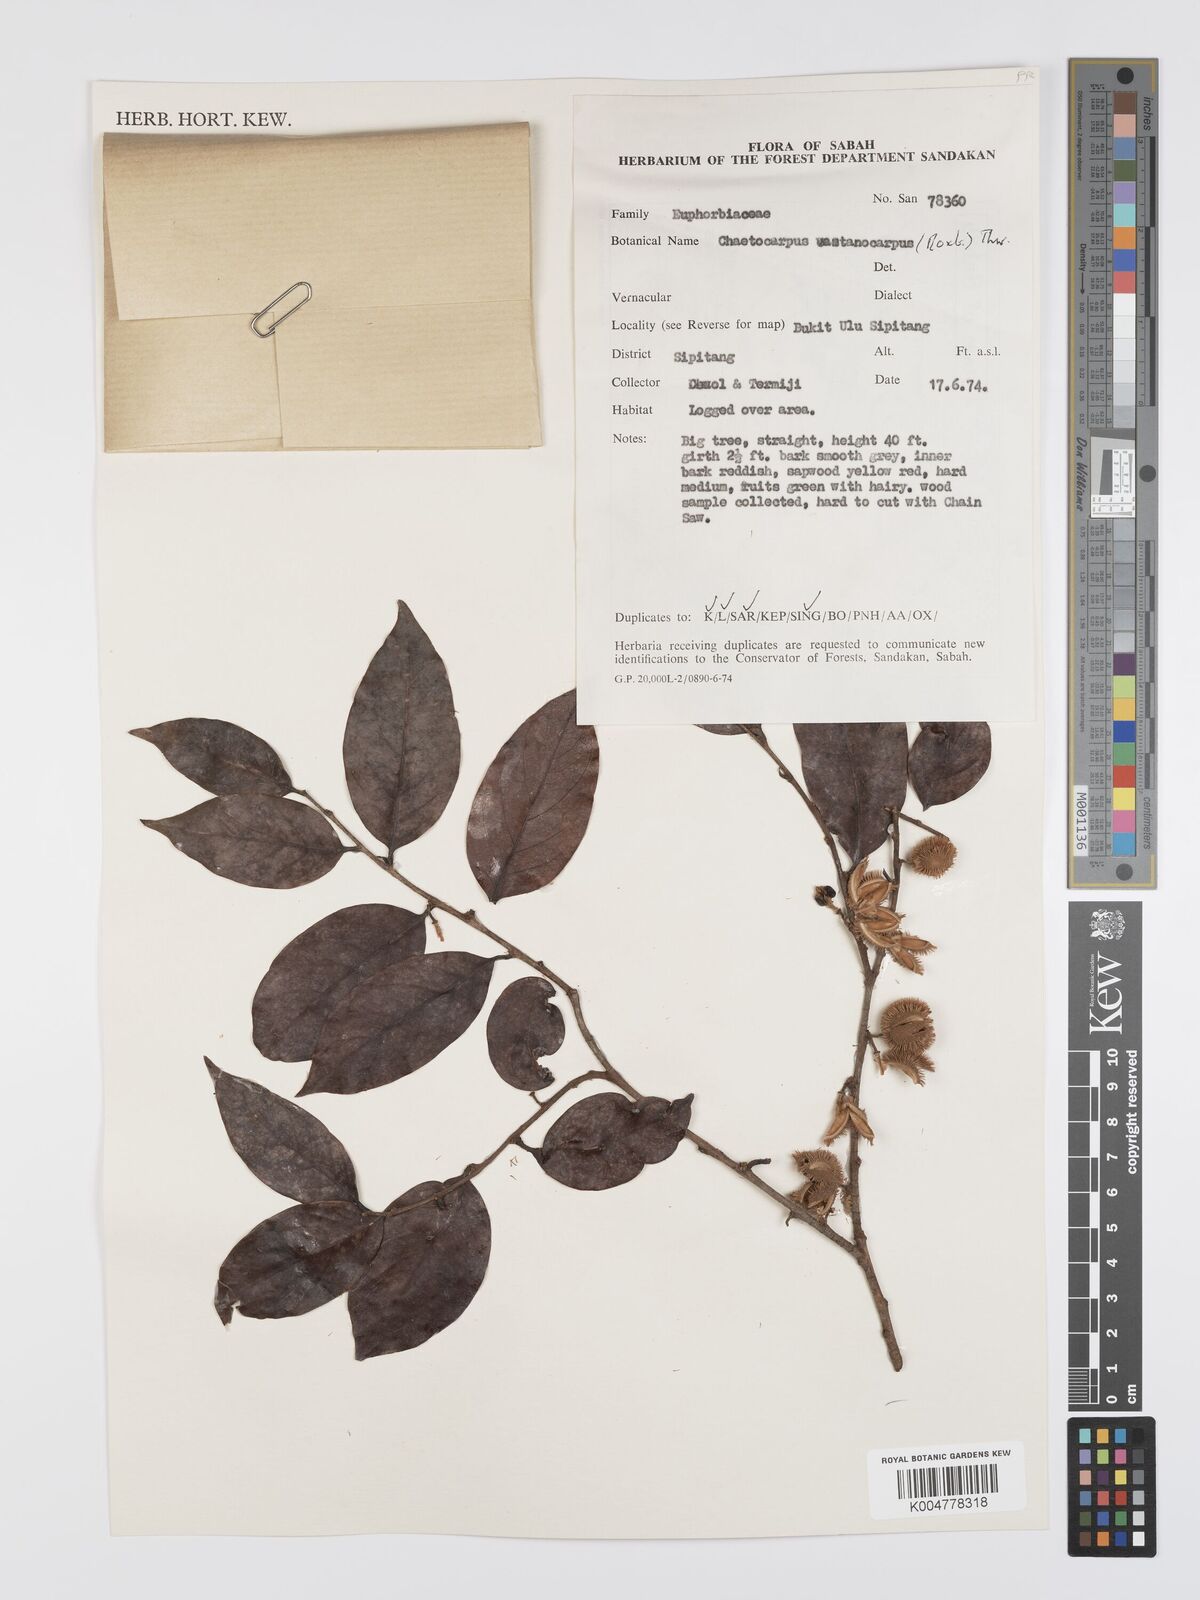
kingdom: Plantae
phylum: Tracheophyta
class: Magnoliopsida
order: Malpighiales
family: Peraceae
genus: Chaetocarpus
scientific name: Chaetocarpus castanocarpus
